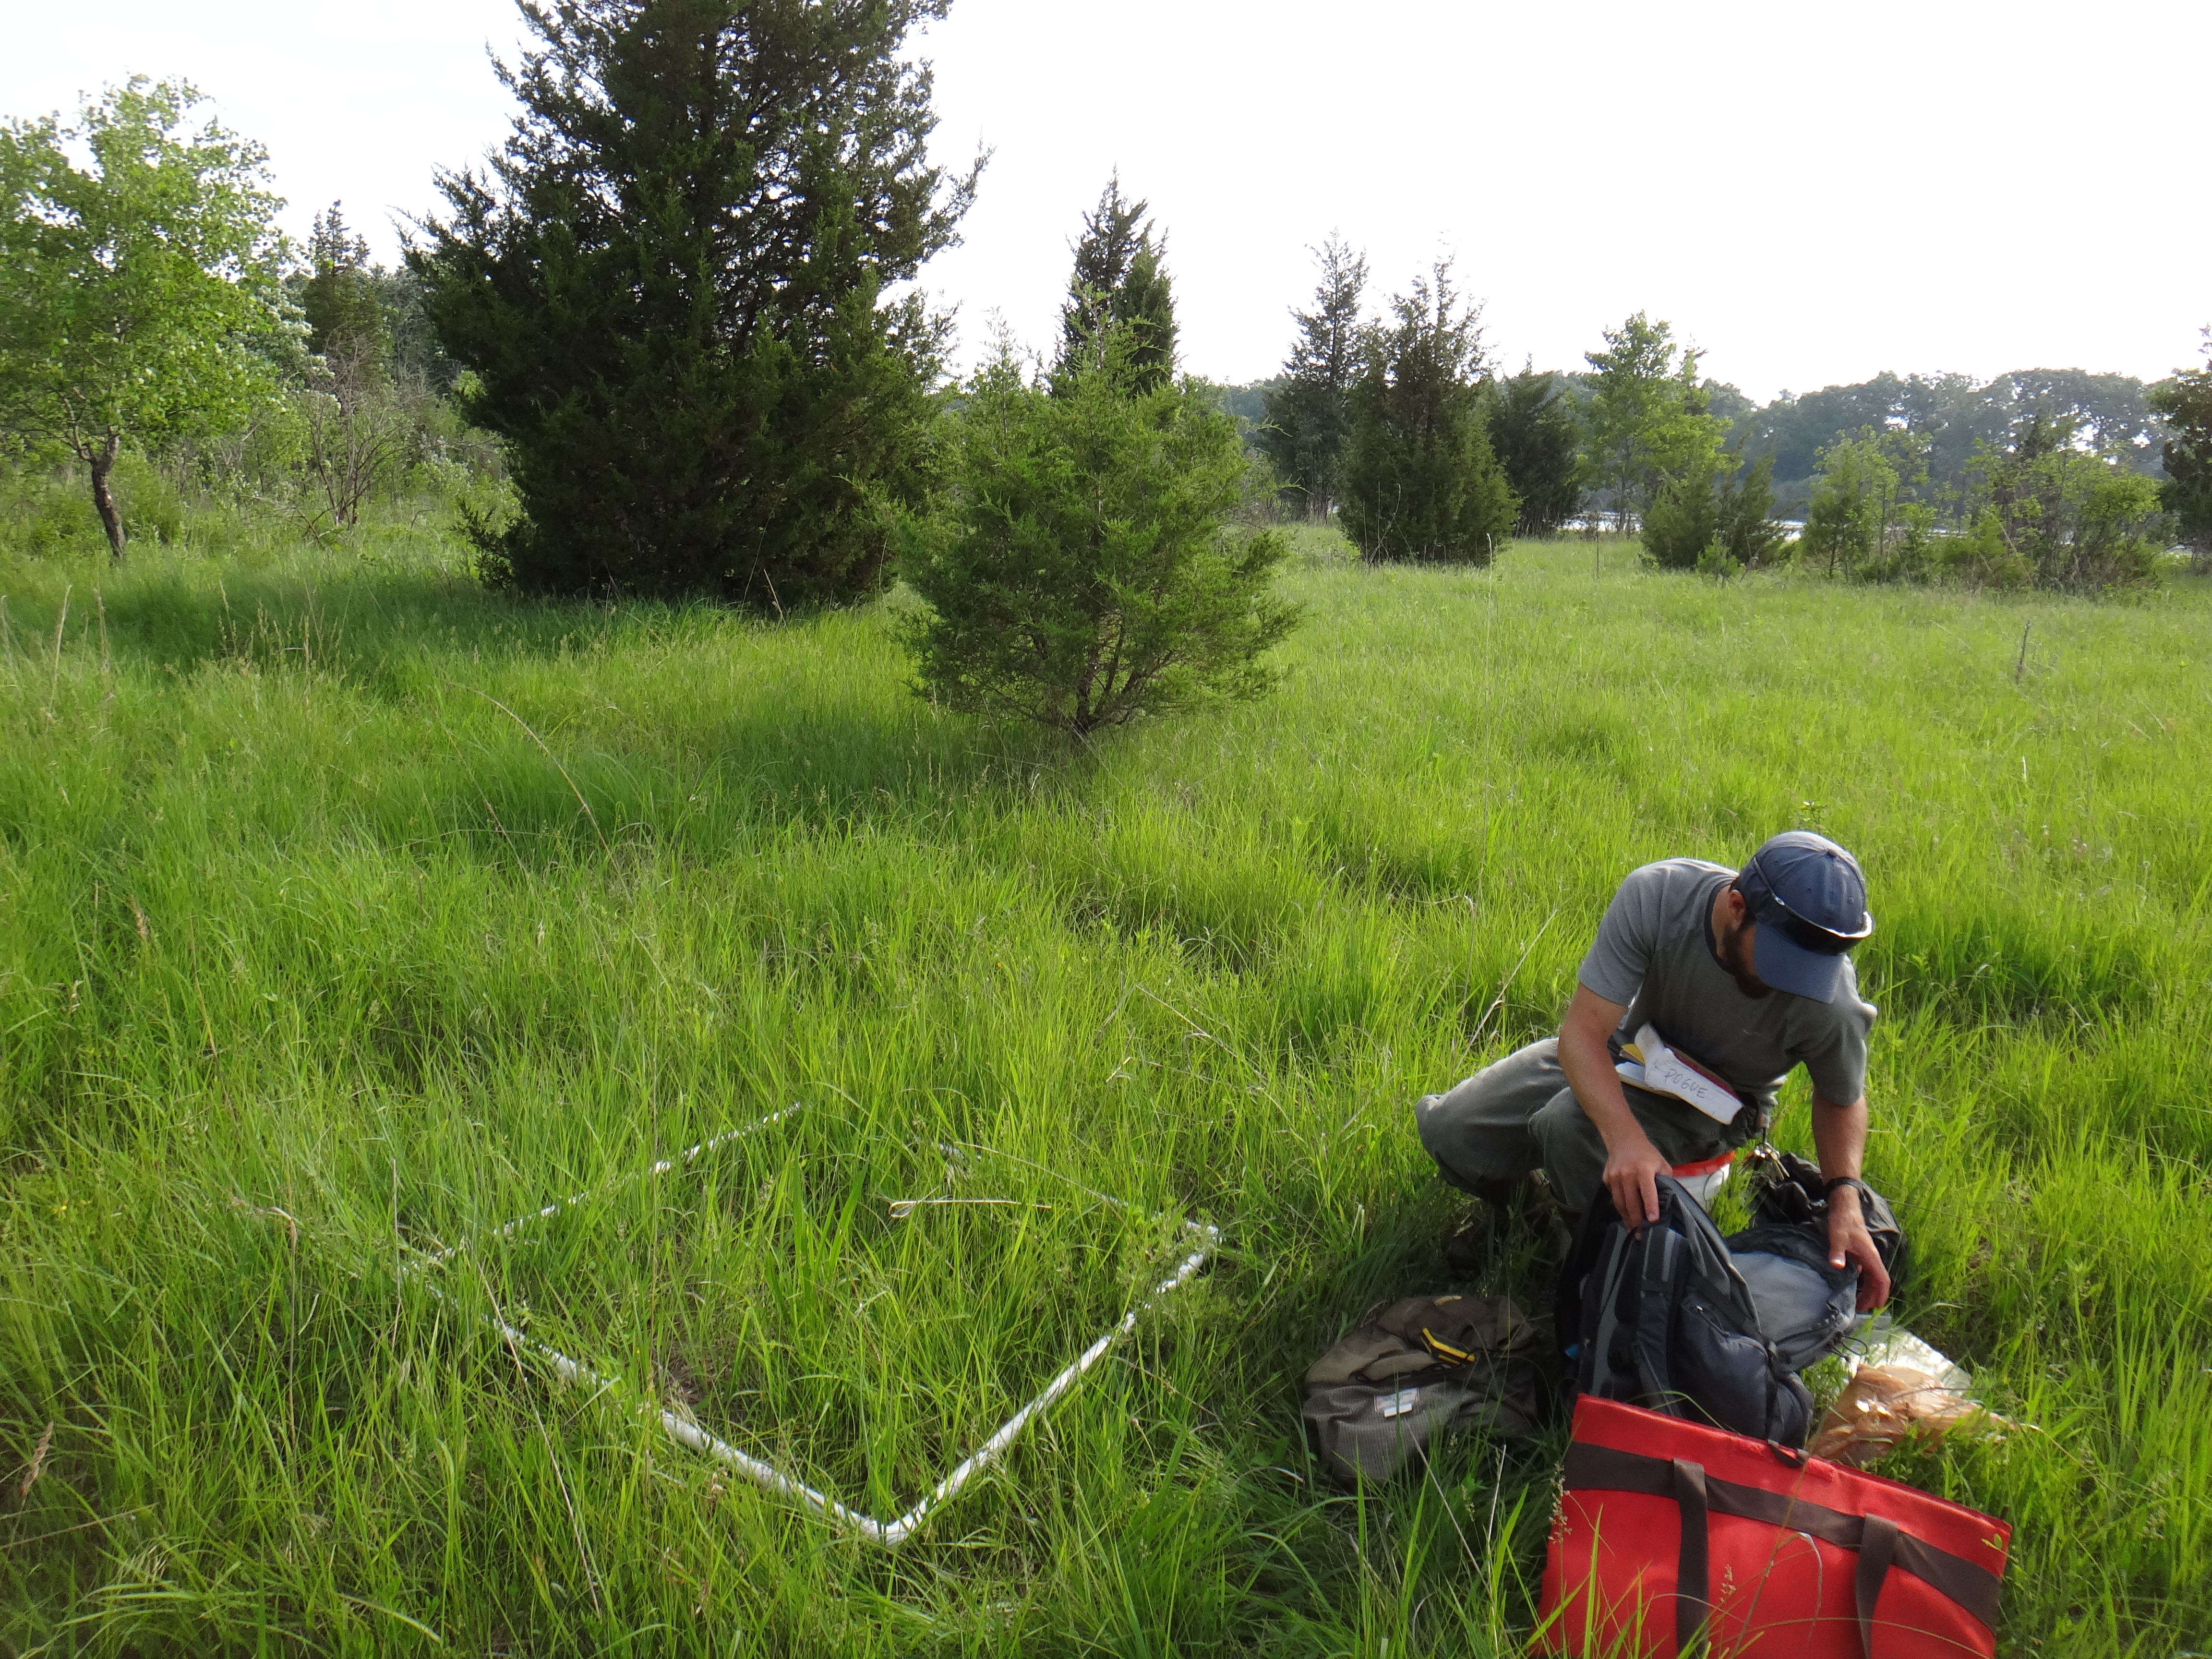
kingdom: Plantae
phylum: Tracheophyta
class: Magnoliopsida
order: Asterales
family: Asteraceae
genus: Ratibida
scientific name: Ratibida pinnata
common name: Drooping prairie-coneflower
